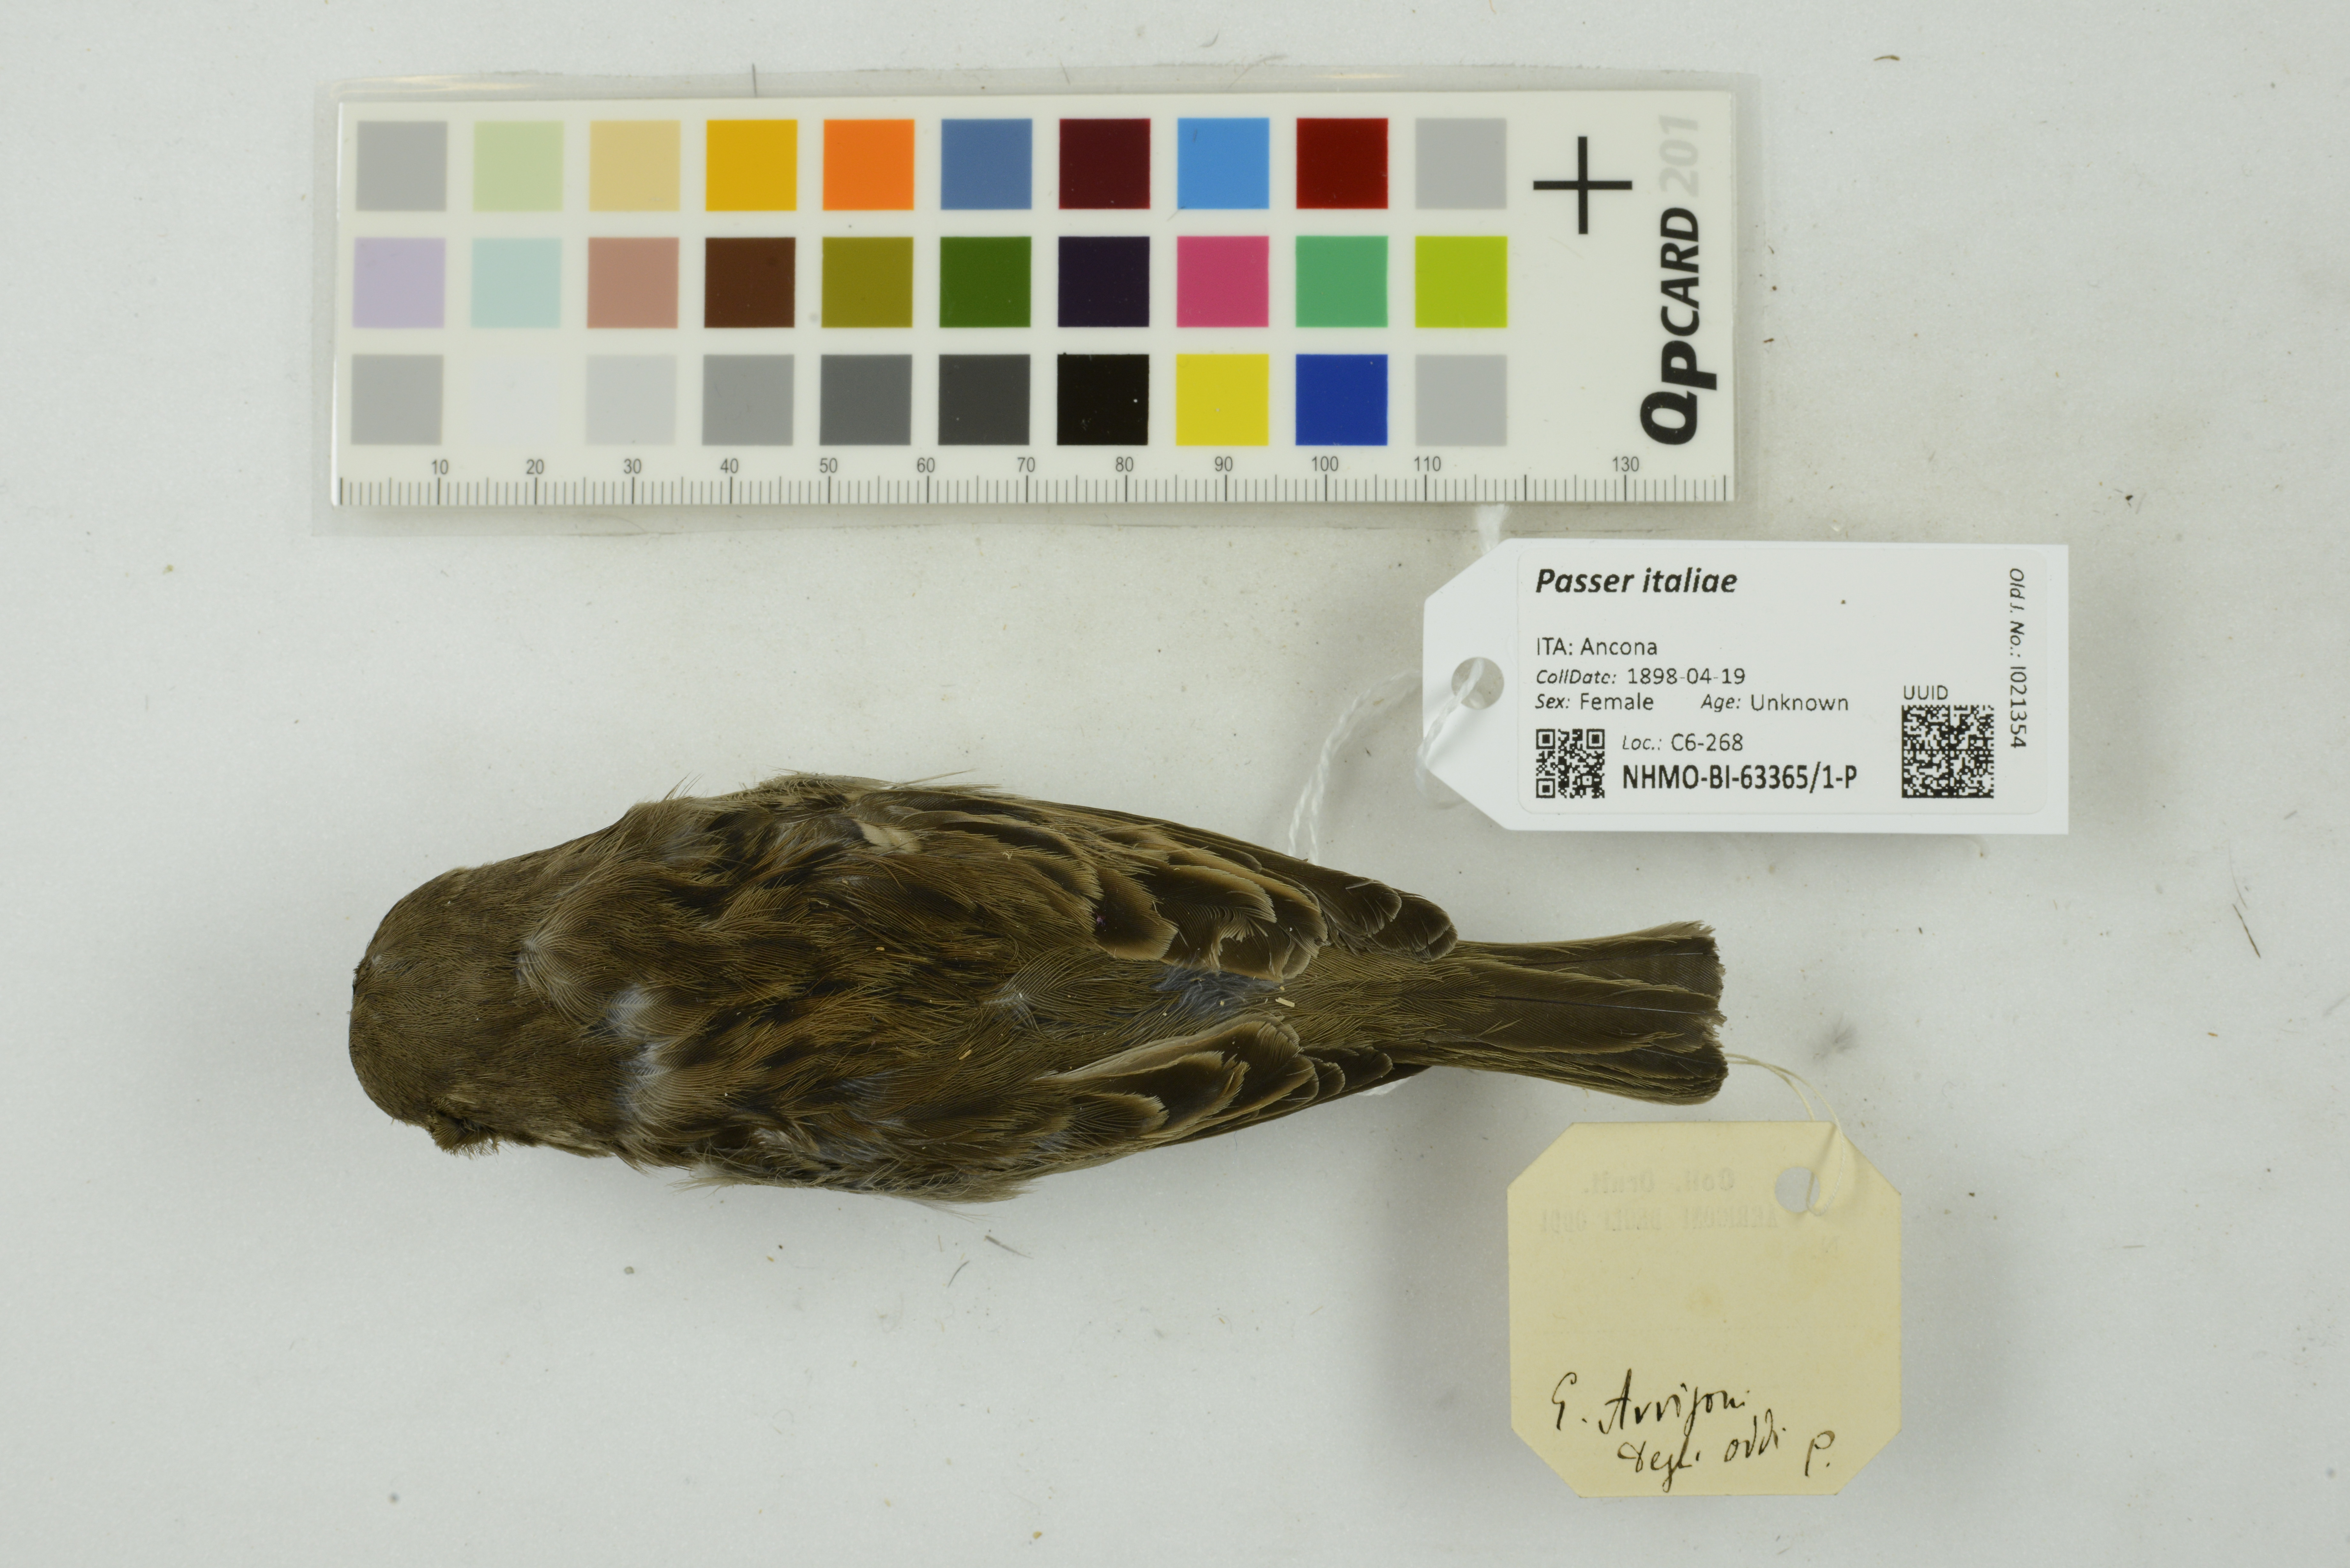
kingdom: Animalia
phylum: Chordata
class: Aves
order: Passeriformes
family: Passeridae
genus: Passer
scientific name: Passer italiae
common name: Italian sparrow
